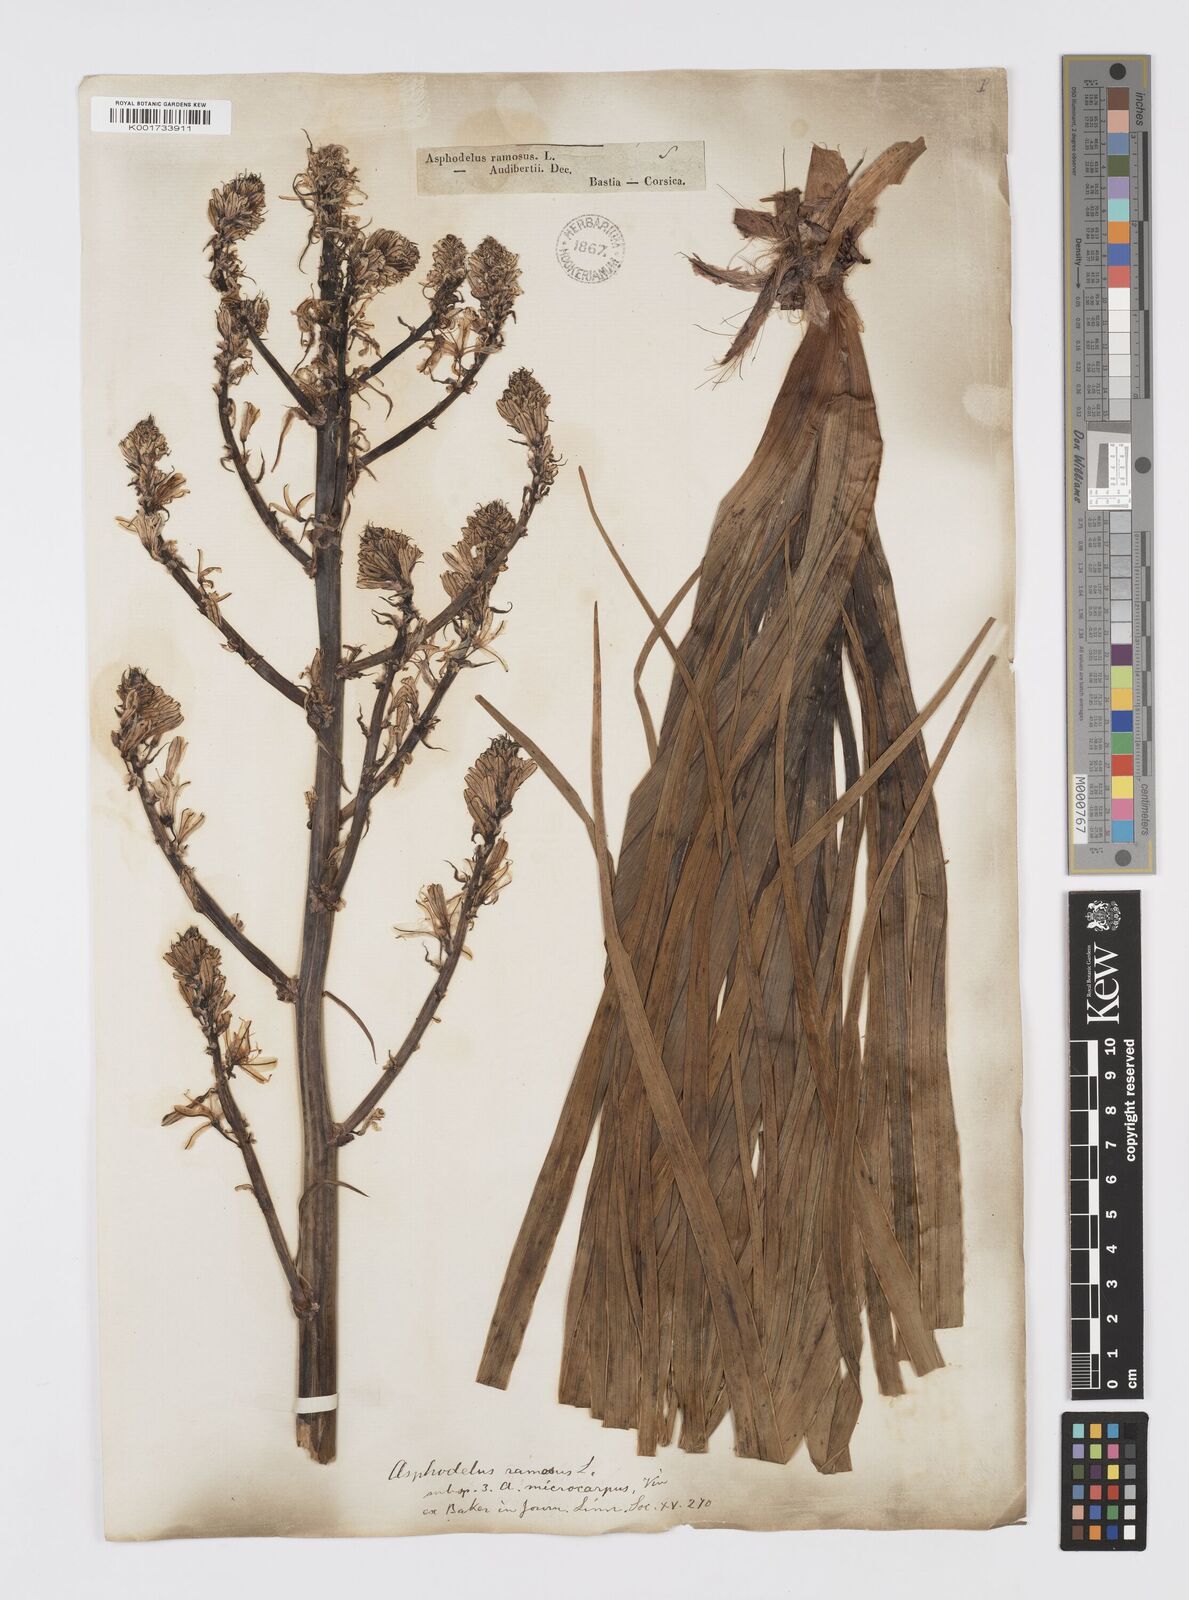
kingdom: Plantae
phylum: Tracheophyta
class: Liliopsida
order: Asparagales
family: Asphodelaceae
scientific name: Asphodelaceae
